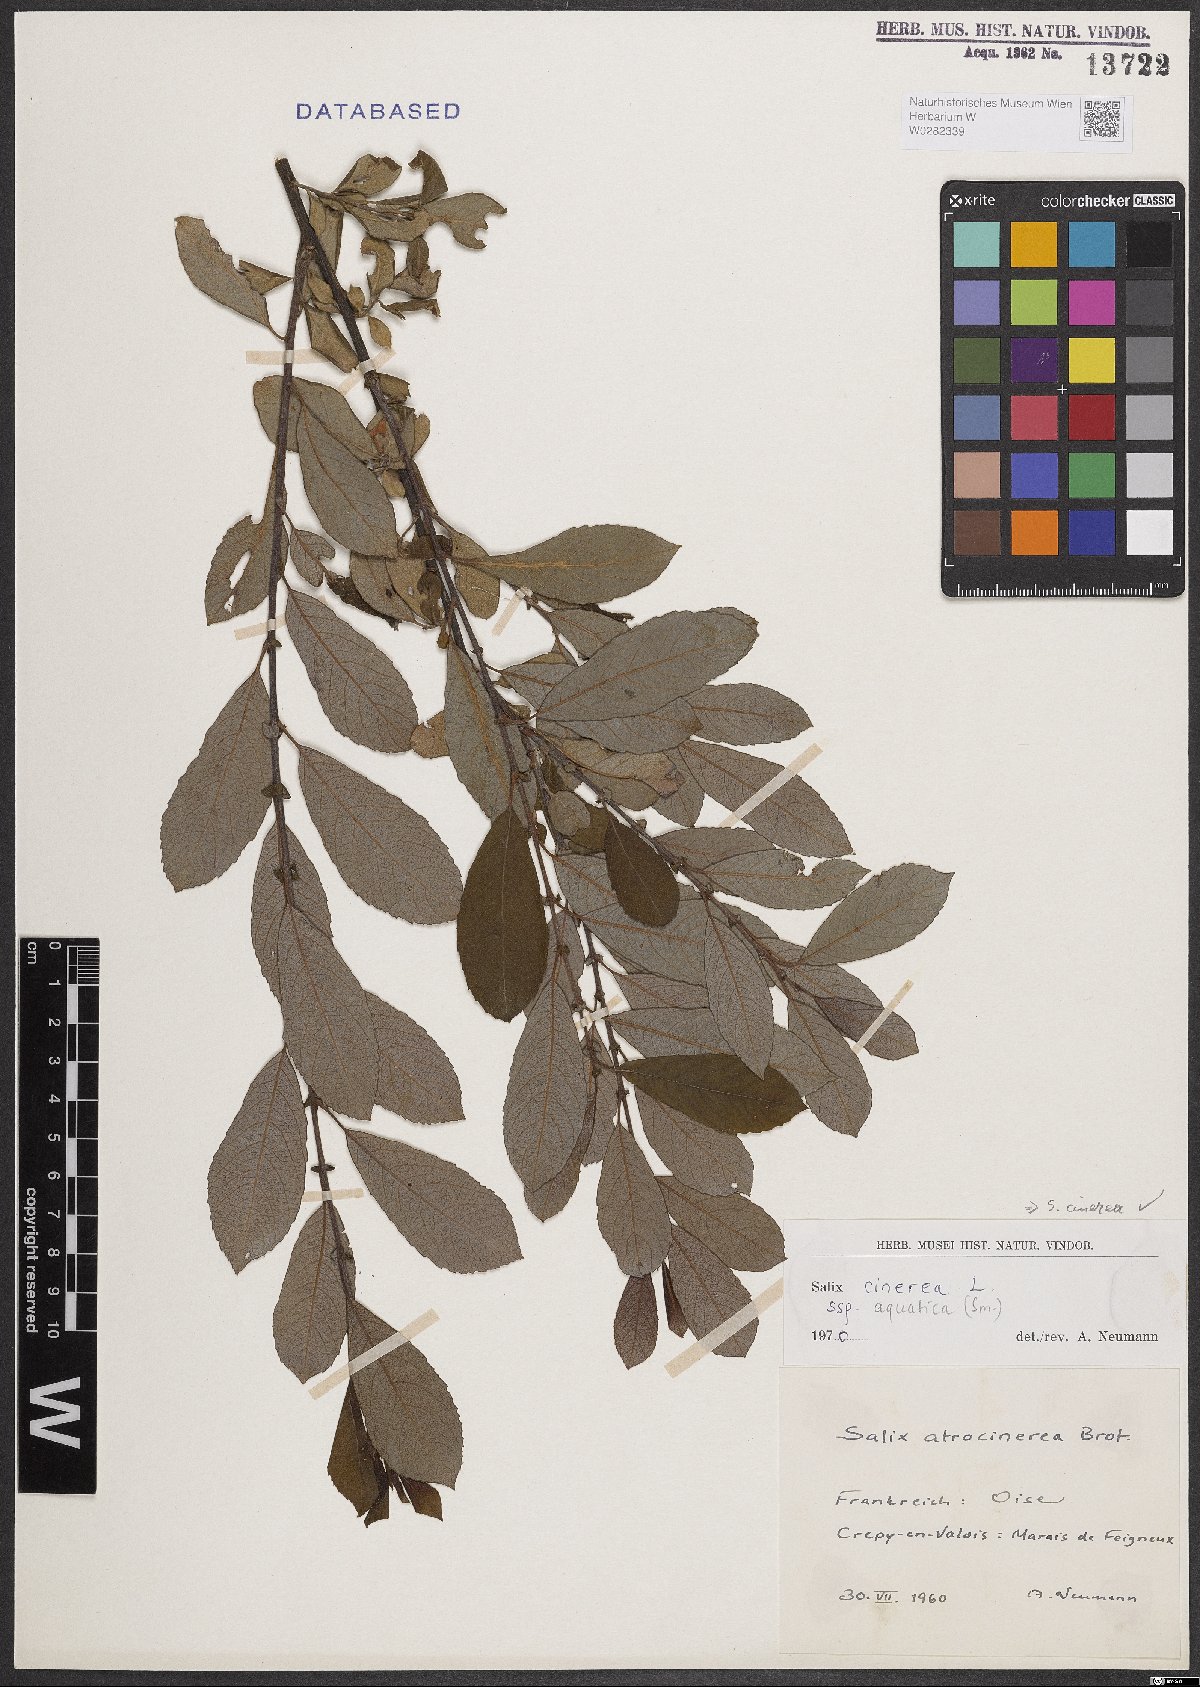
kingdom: Plantae
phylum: Tracheophyta
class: Magnoliopsida
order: Malpighiales
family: Salicaceae
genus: Salix
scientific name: Salix cinerea
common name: Common sallow
